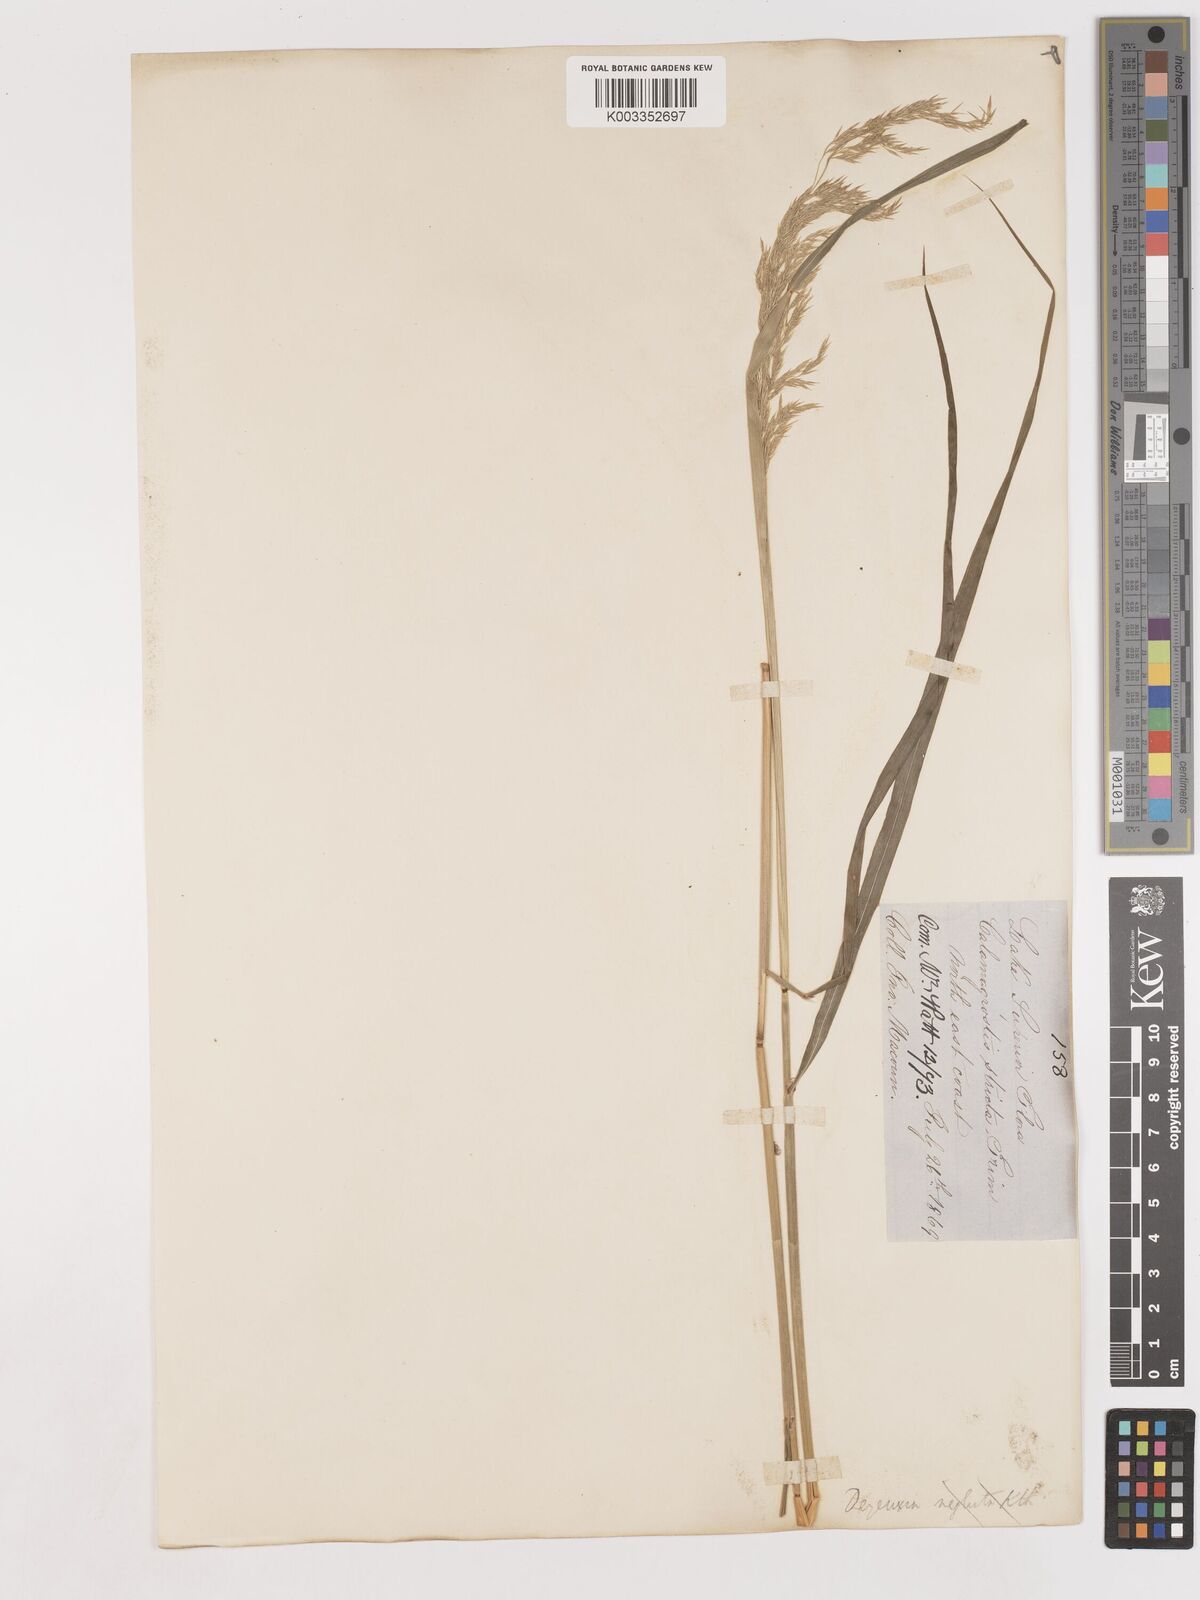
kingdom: Plantae
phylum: Tracheophyta
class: Liliopsida
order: Poales
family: Poaceae
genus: Calamagrostis
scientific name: Calamagrostis canadensis
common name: Canada bluejoint
